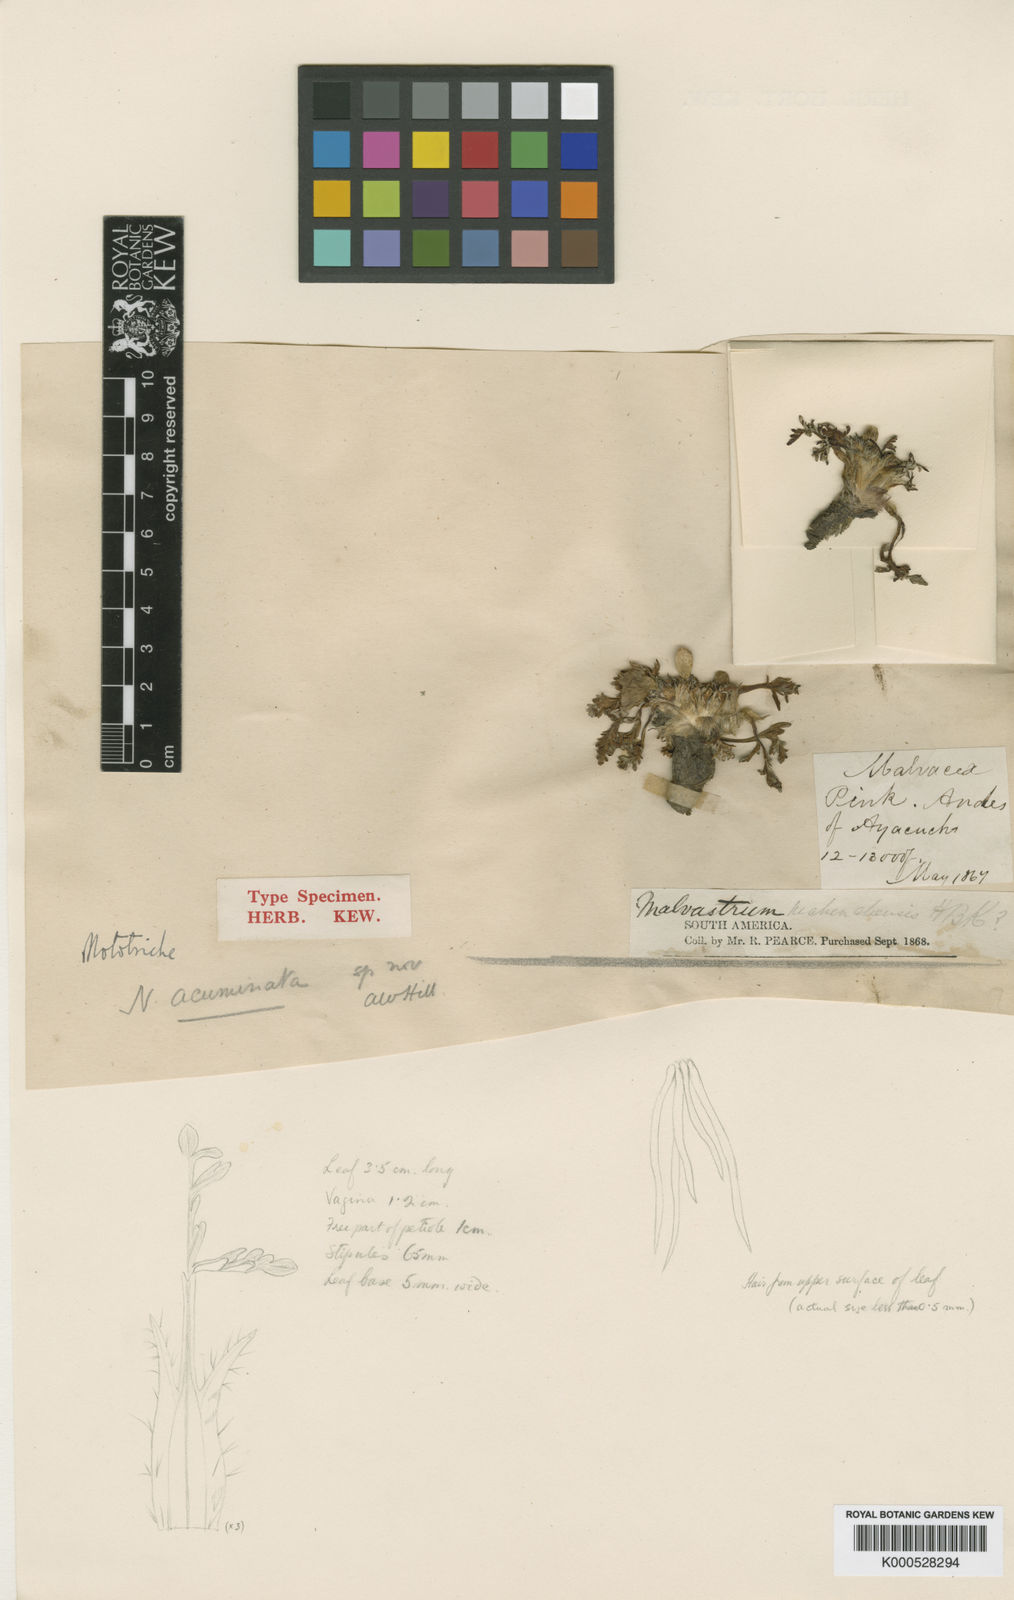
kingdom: Plantae
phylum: Tracheophyta
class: Magnoliopsida
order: Malvales
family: Malvaceae
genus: Nototriche
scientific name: Nototriche argentea
